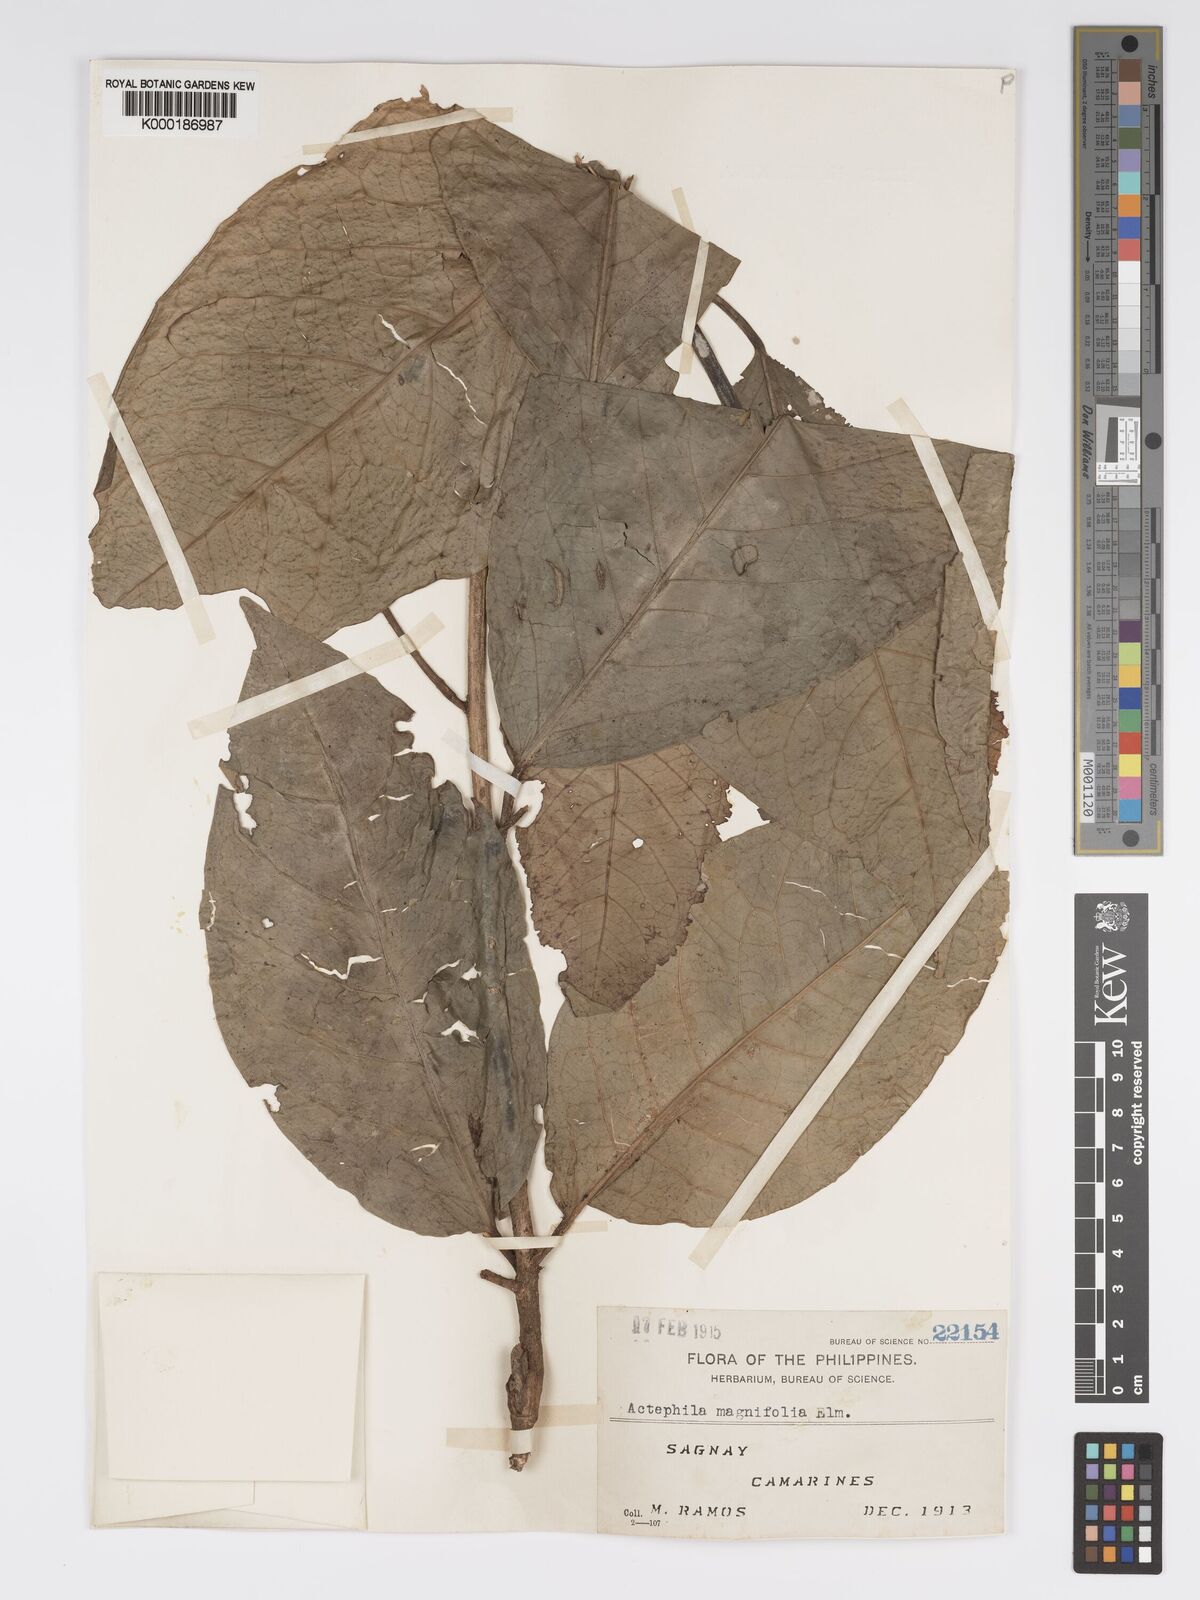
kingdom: Plantae
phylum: Tracheophyta
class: Magnoliopsida
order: Malpighiales
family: Phyllanthaceae
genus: Actephila
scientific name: Actephila
